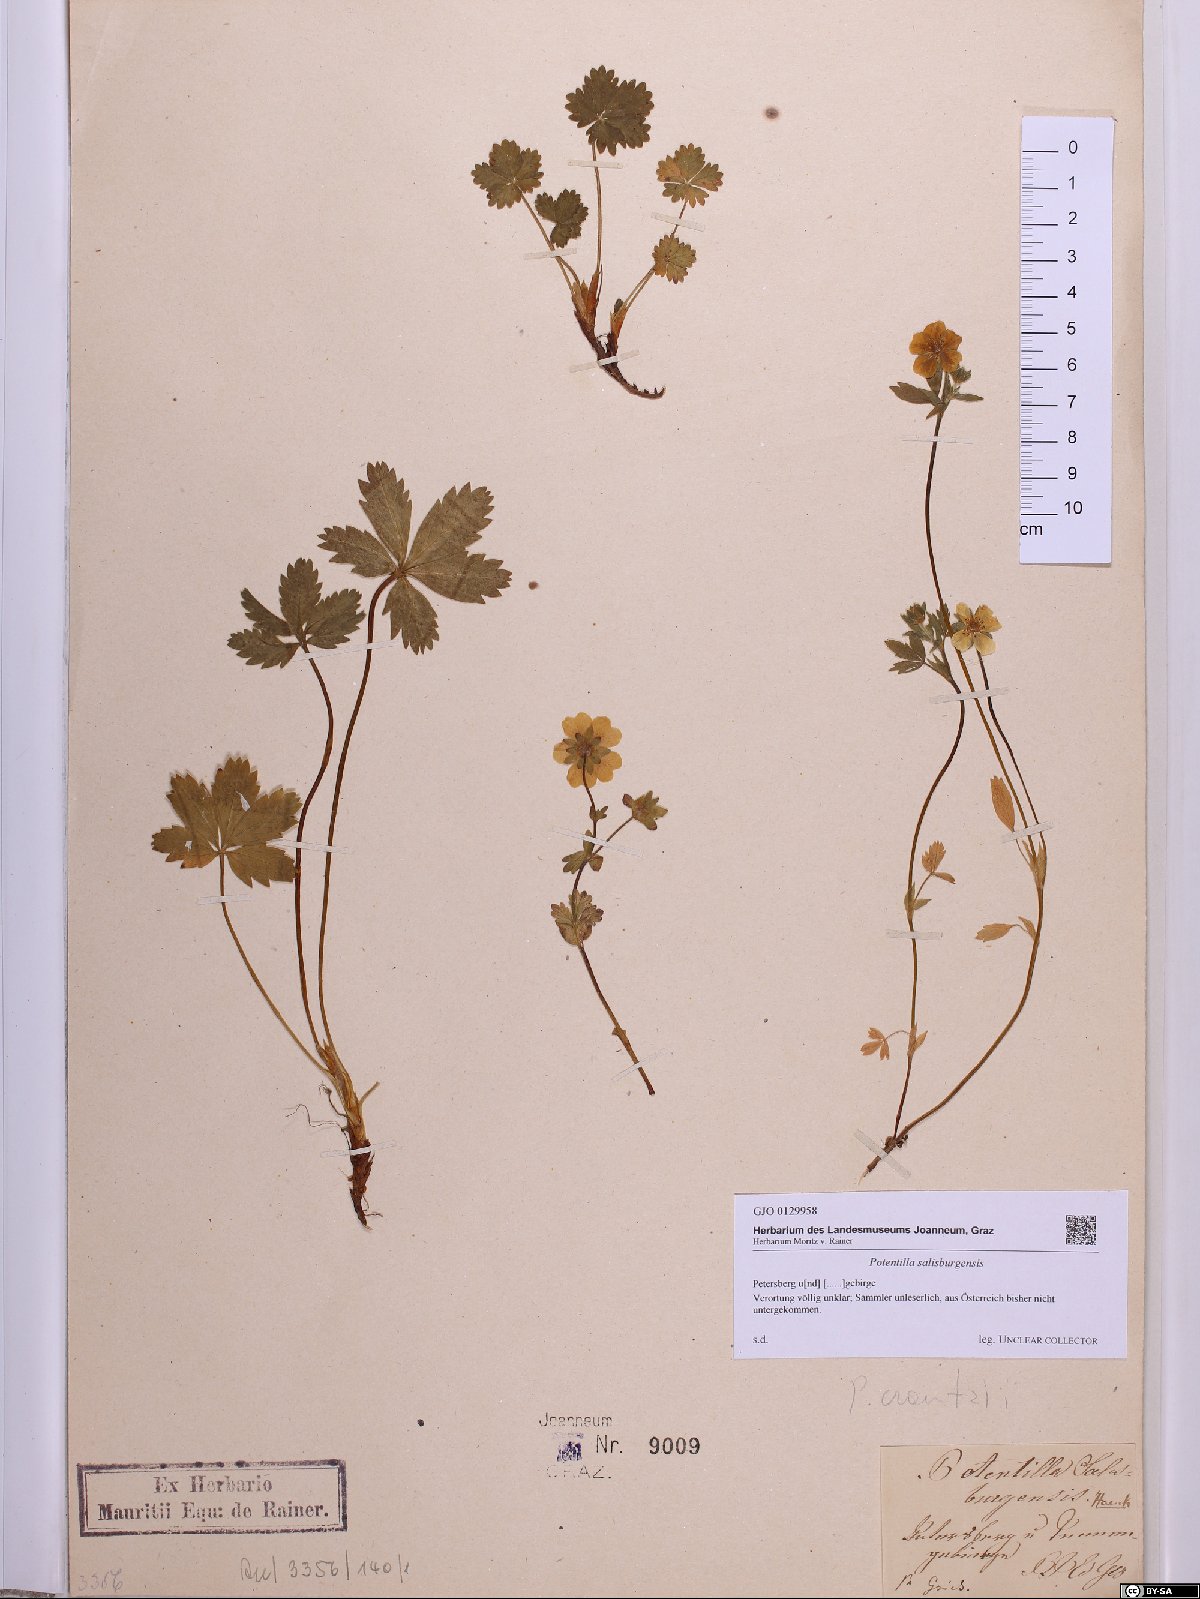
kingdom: Plantae
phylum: Tracheophyta
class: Magnoliopsida
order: Rosales
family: Rosaceae
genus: Potentilla
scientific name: Potentilla crantzii
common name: Alpine cinquefoil
